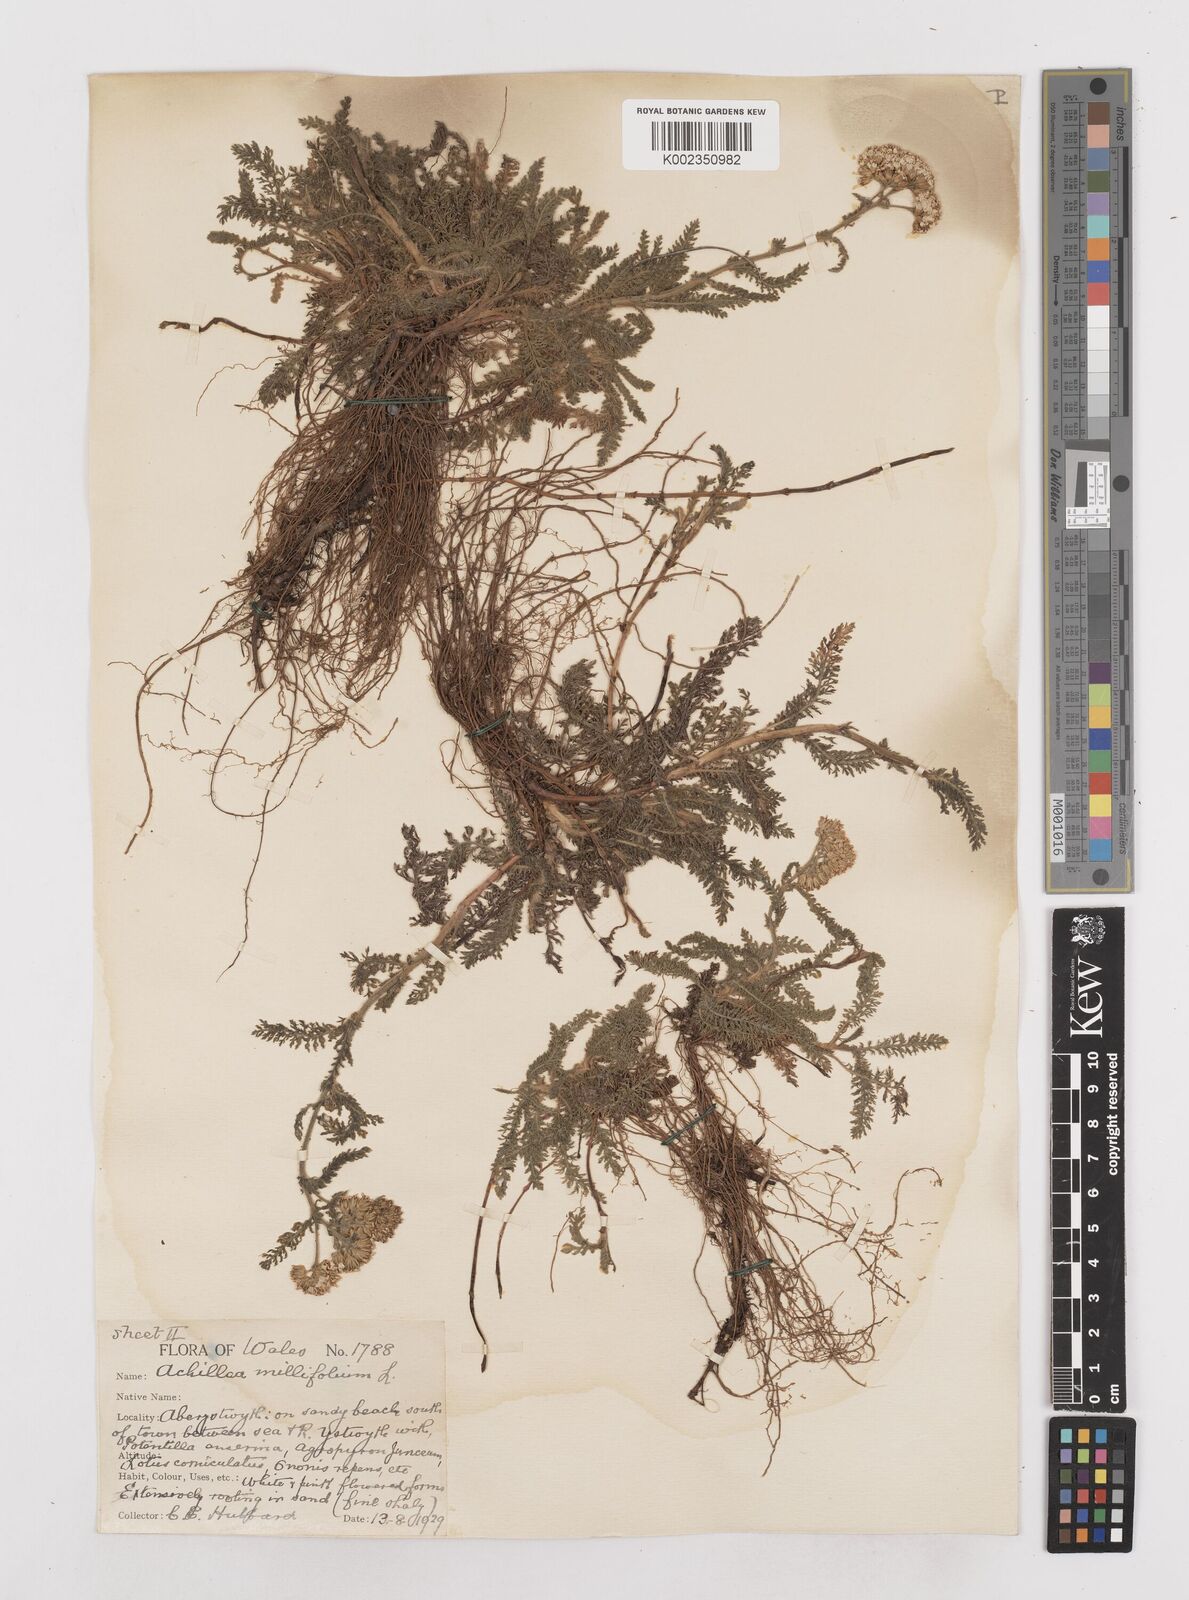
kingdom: Plantae
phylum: Tracheophyta
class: Magnoliopsida
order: Asterales
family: Asteraceae
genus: Achillea
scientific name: Achillea millefolium
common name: Yarrow
